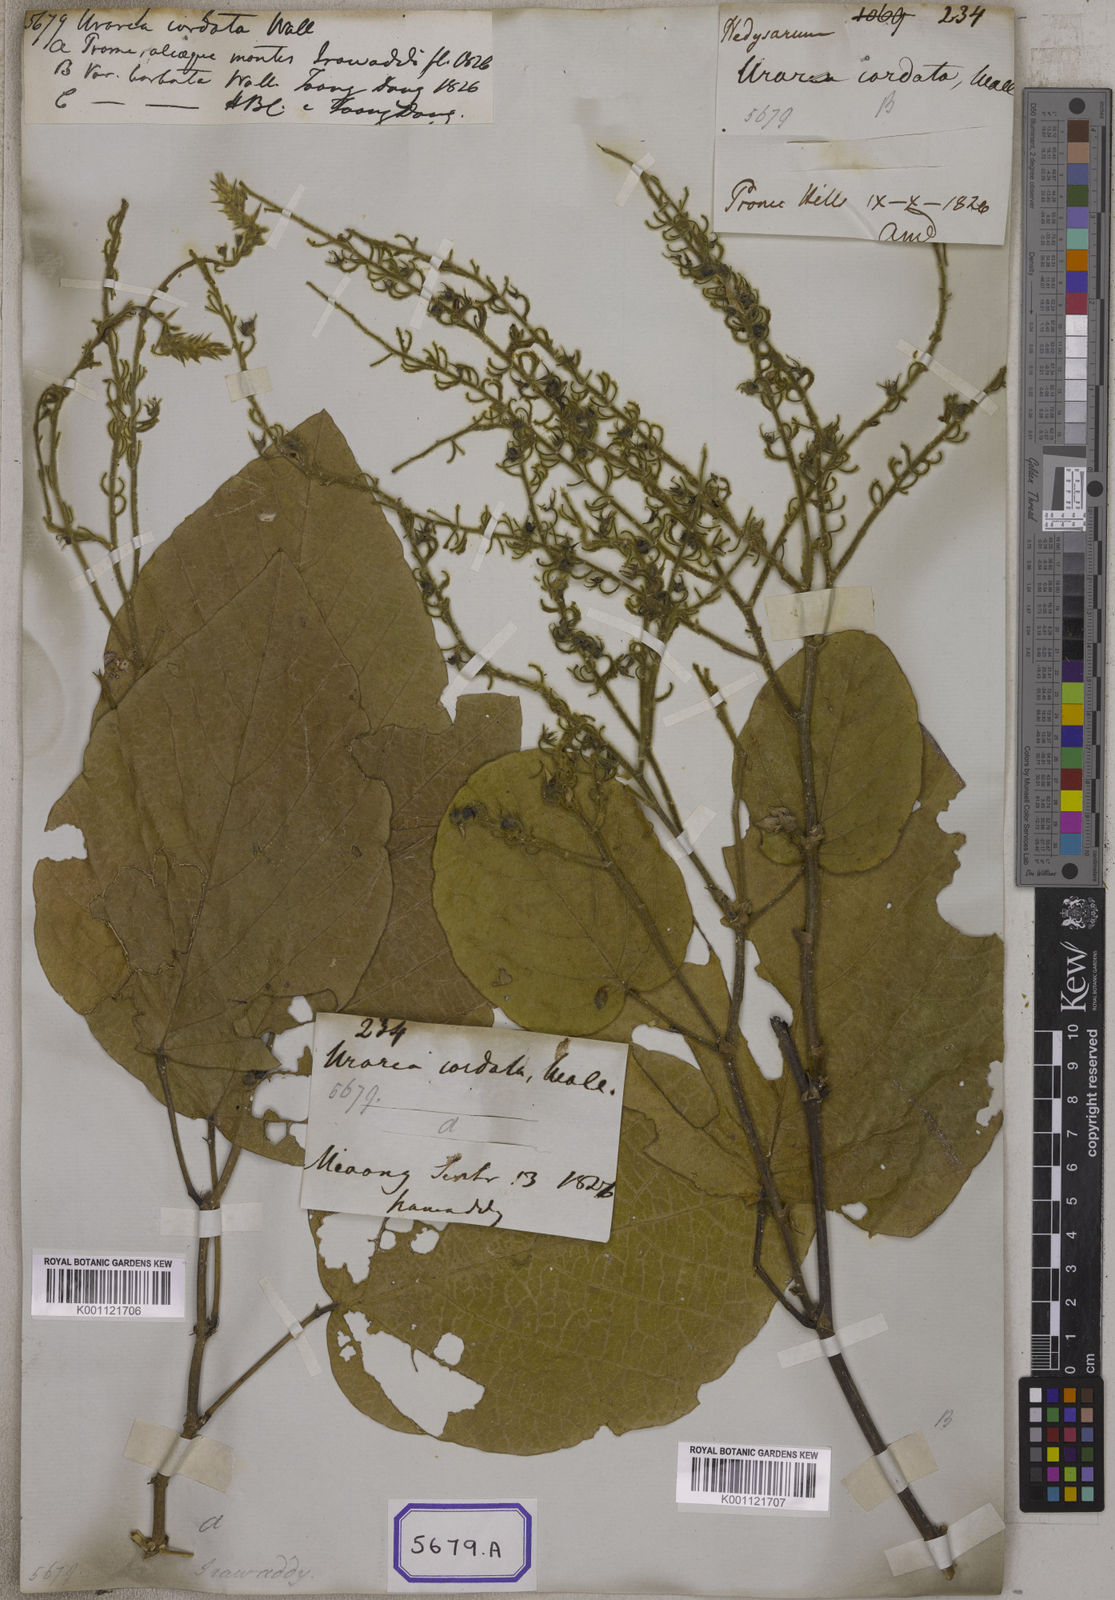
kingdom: Plantae
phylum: Tracheophyta
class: Magnoliopsida
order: Fabales
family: Fabaceae
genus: Uraria
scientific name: Uraria cordifolia
